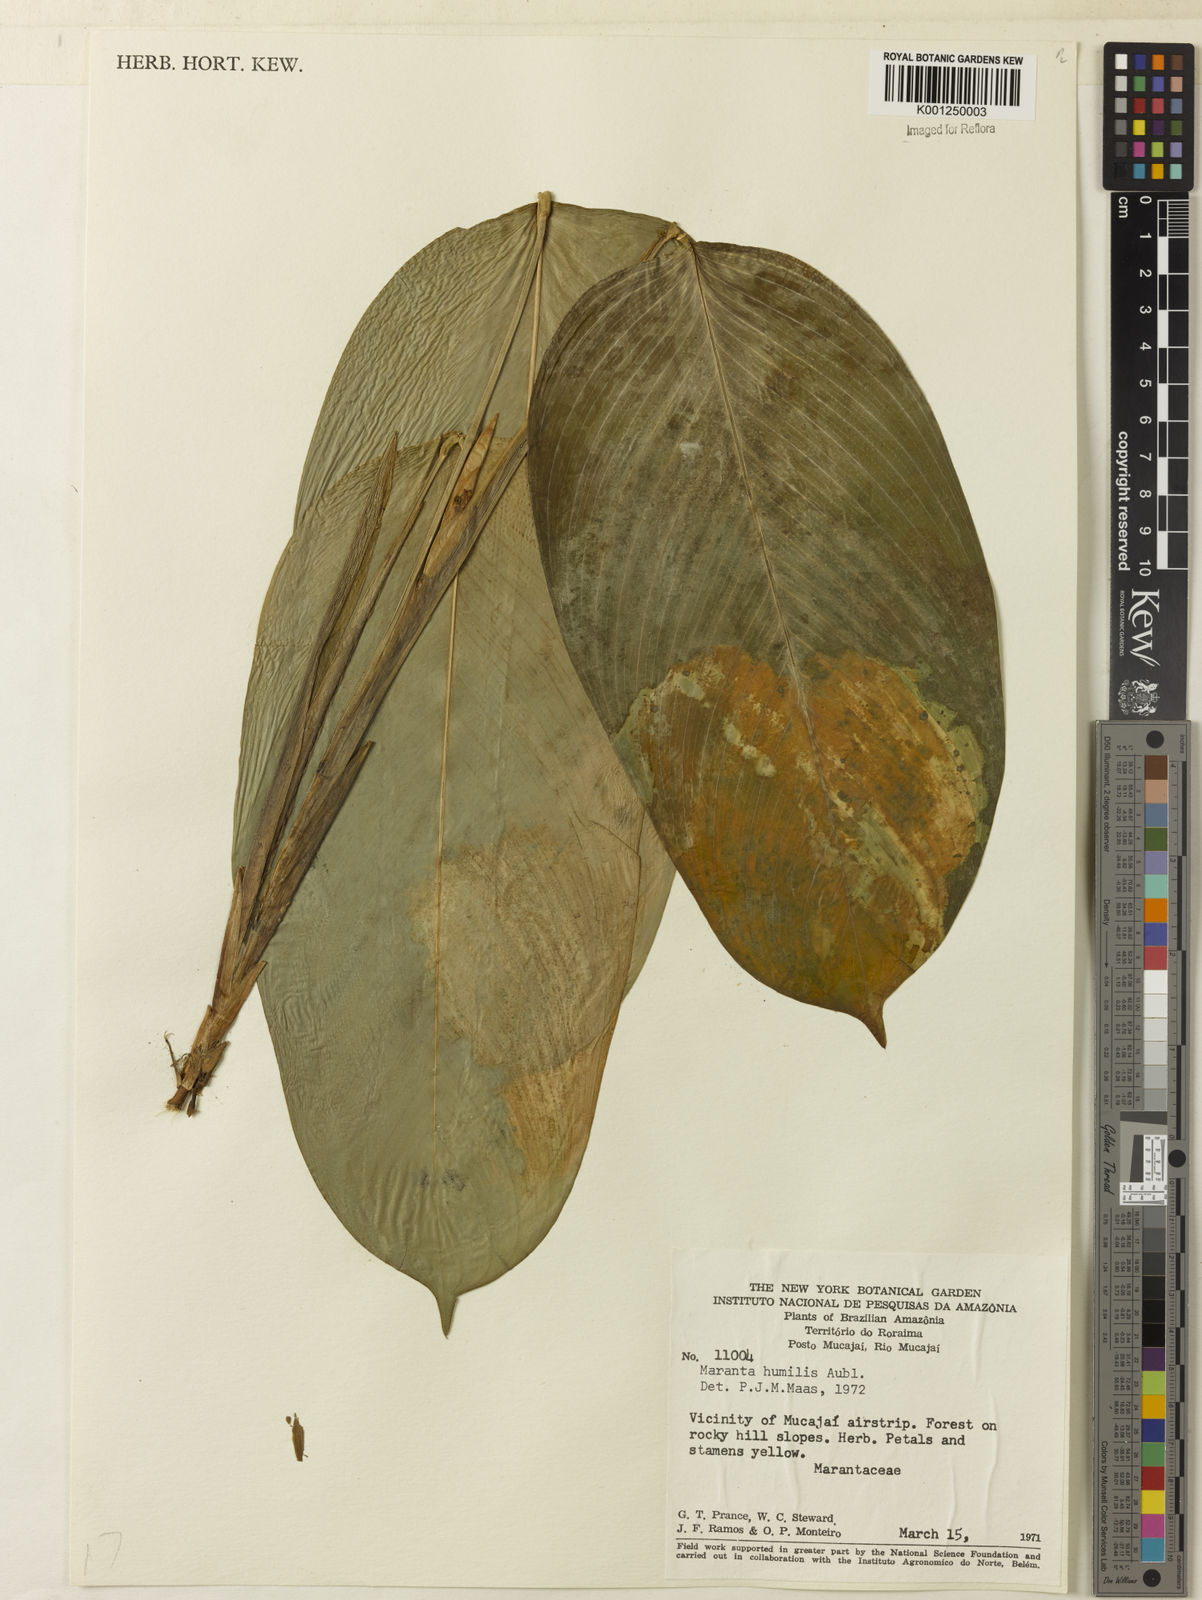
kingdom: Plantae
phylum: Tracheophyta
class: Liliopsida
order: Zingiberales
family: Marantaceae
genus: Maranta
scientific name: Maranta humilis
